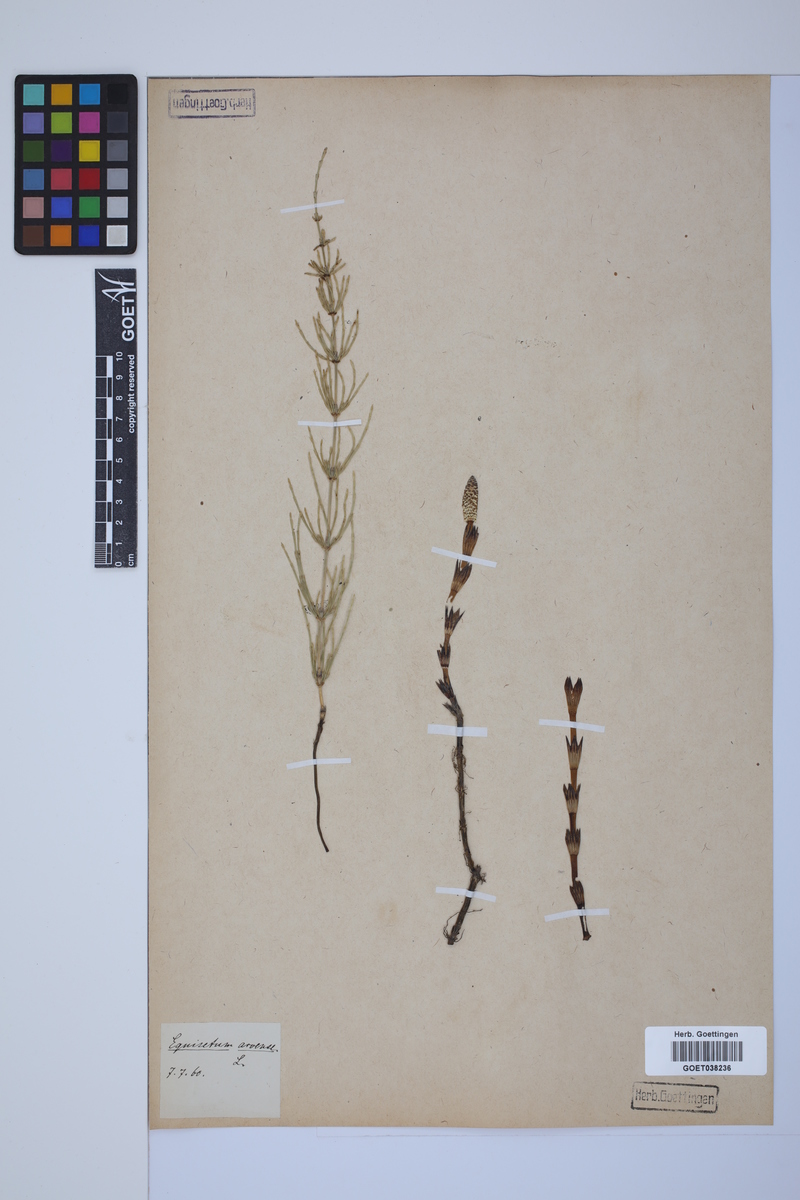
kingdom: Plantae
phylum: Tracheophyta
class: Polypodiopsida
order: Equisetales
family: Equisetaceae
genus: Equisetum
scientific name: Equisetum arvense
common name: Field horsetail
